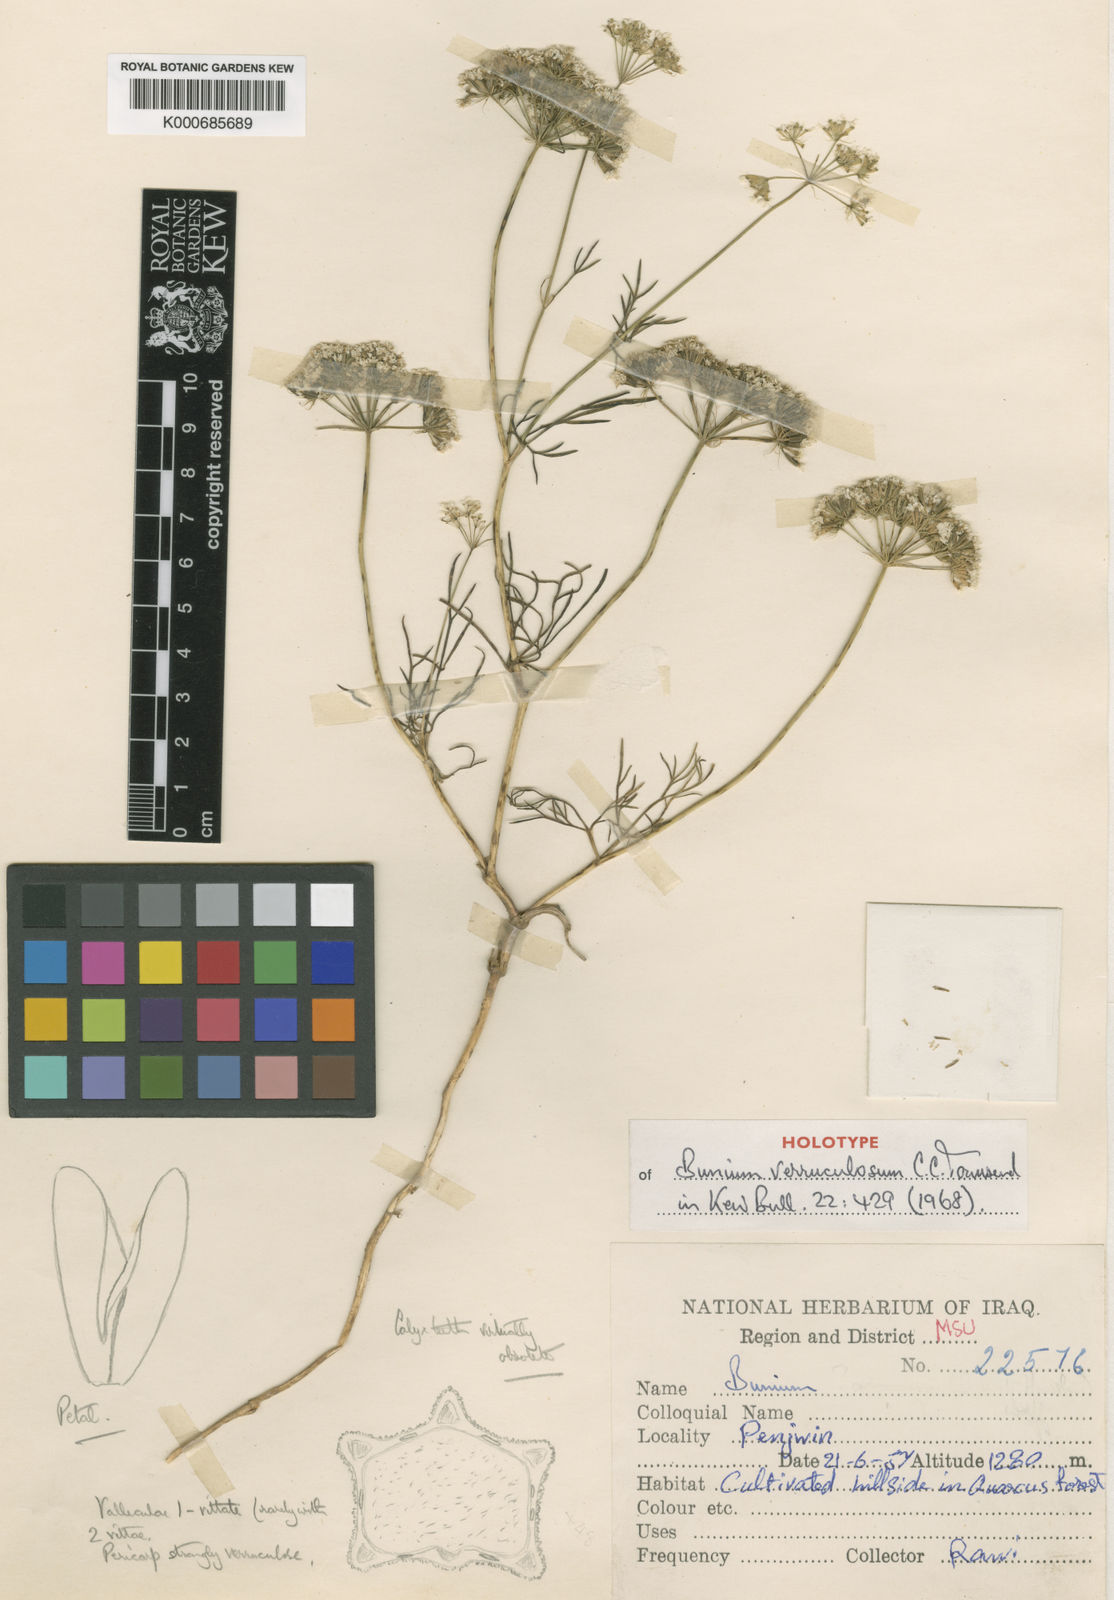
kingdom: Plantae
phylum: Tracheophyta
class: Magnoliopsida
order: Apiales
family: Apiaceae
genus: Bunium
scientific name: Bunium verruculosum
